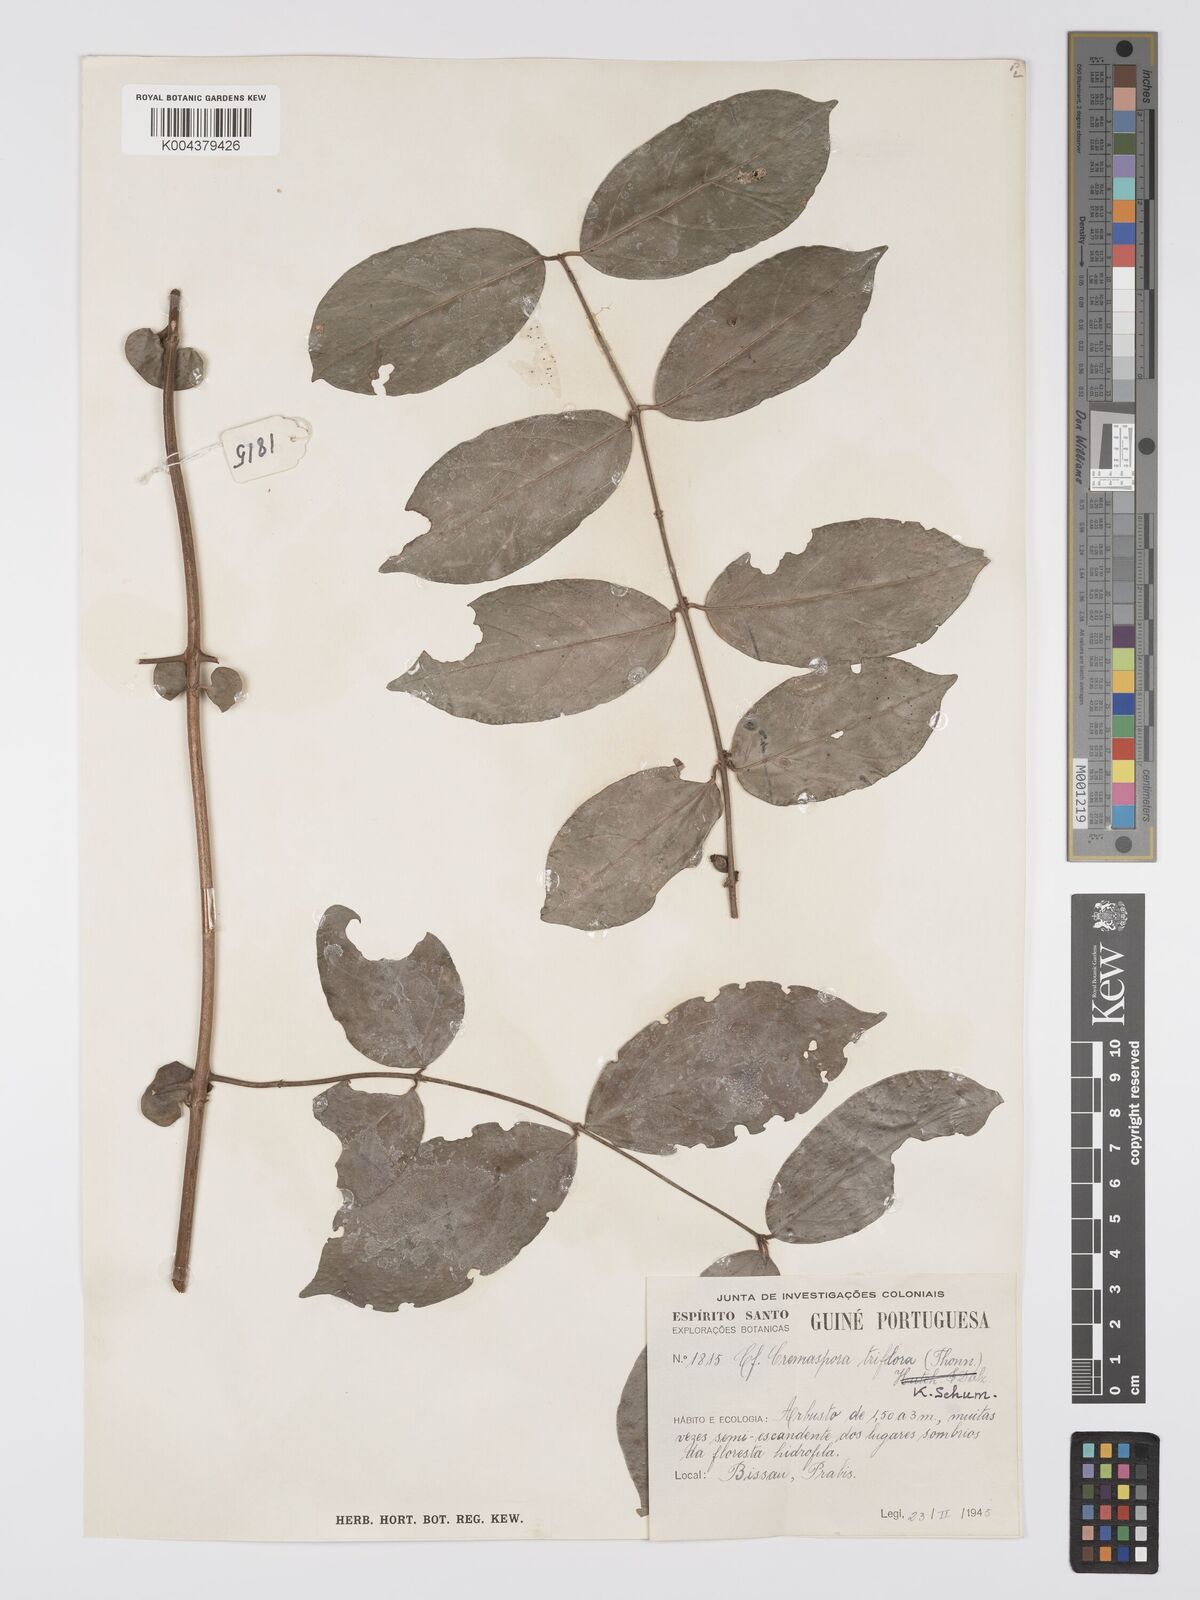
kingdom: Plantae
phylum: Tracheophyta
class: Magnoliopsida
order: Gentianales
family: Rubiaceae
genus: Cremaspora
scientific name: Cremaspora triflora
